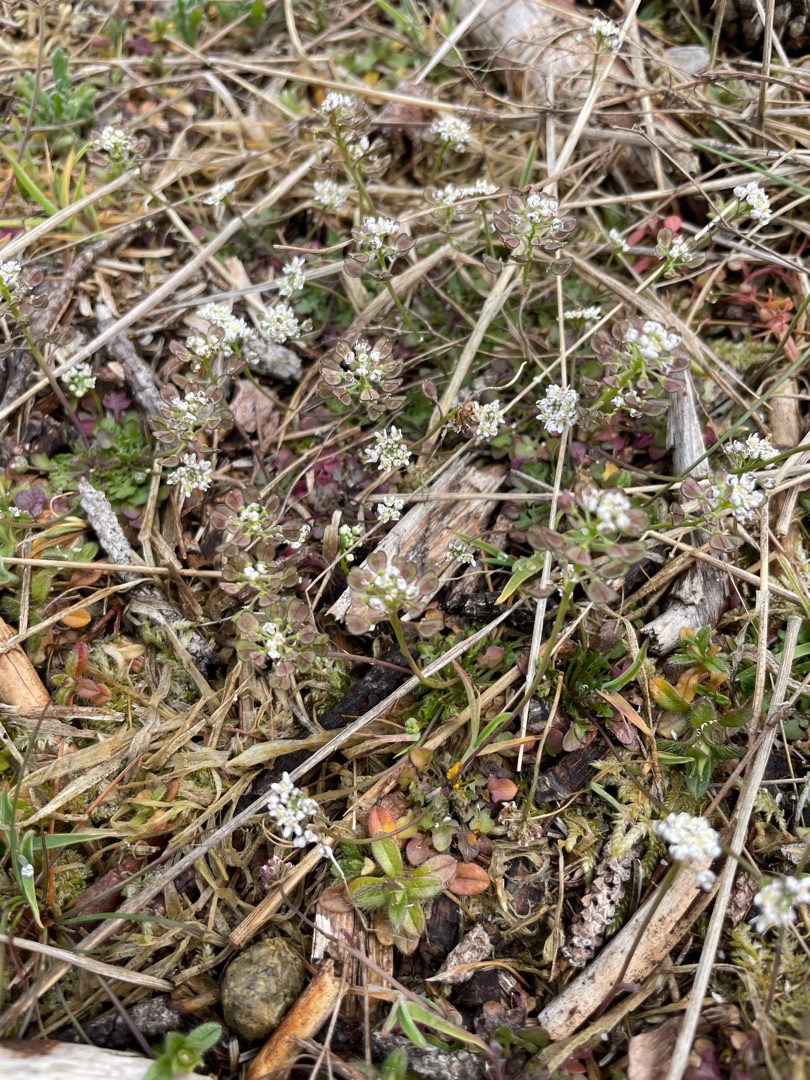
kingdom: Plantae
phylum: Tracheophyta
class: Magnoliopsida
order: Brassicales
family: Brassicaceae
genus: Teesdalia
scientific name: Teesdalia nudicaulis
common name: Flipkrave
